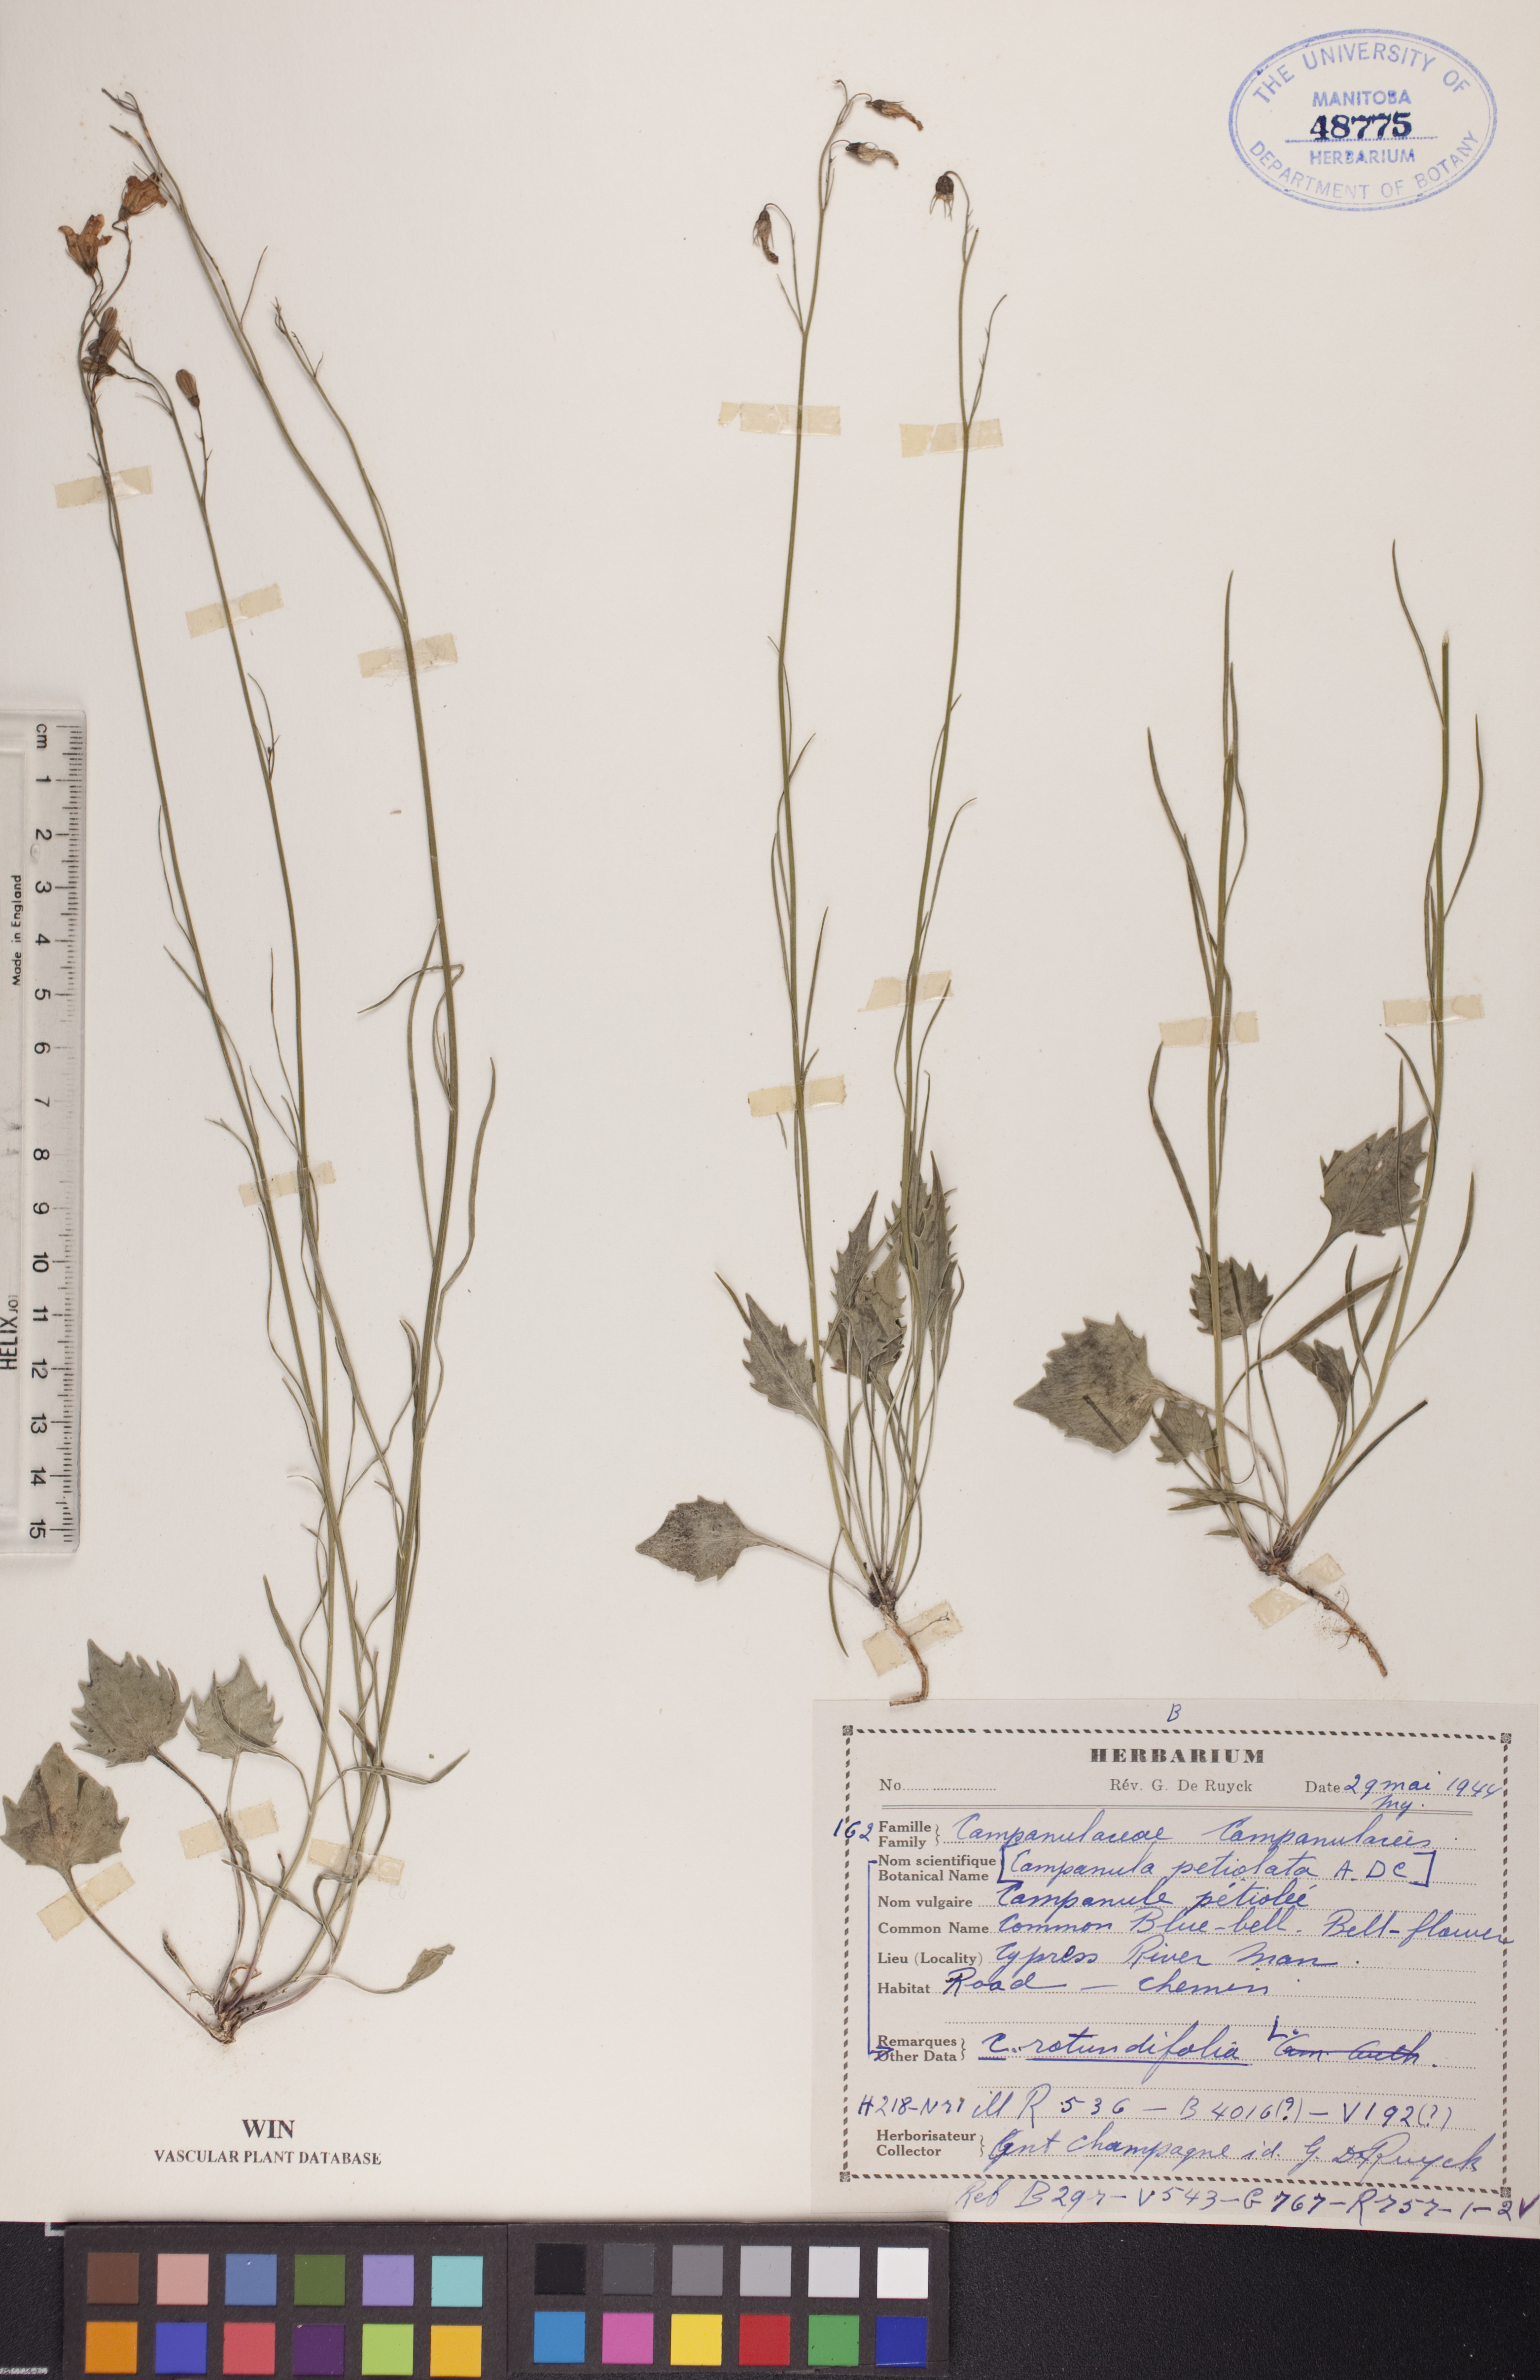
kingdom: Plantae
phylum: Tracheophyta
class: Magnoliopsida
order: Asterales
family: Campanulaceae
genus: Campanula
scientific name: Campanula rotundifolia
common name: Harebell
